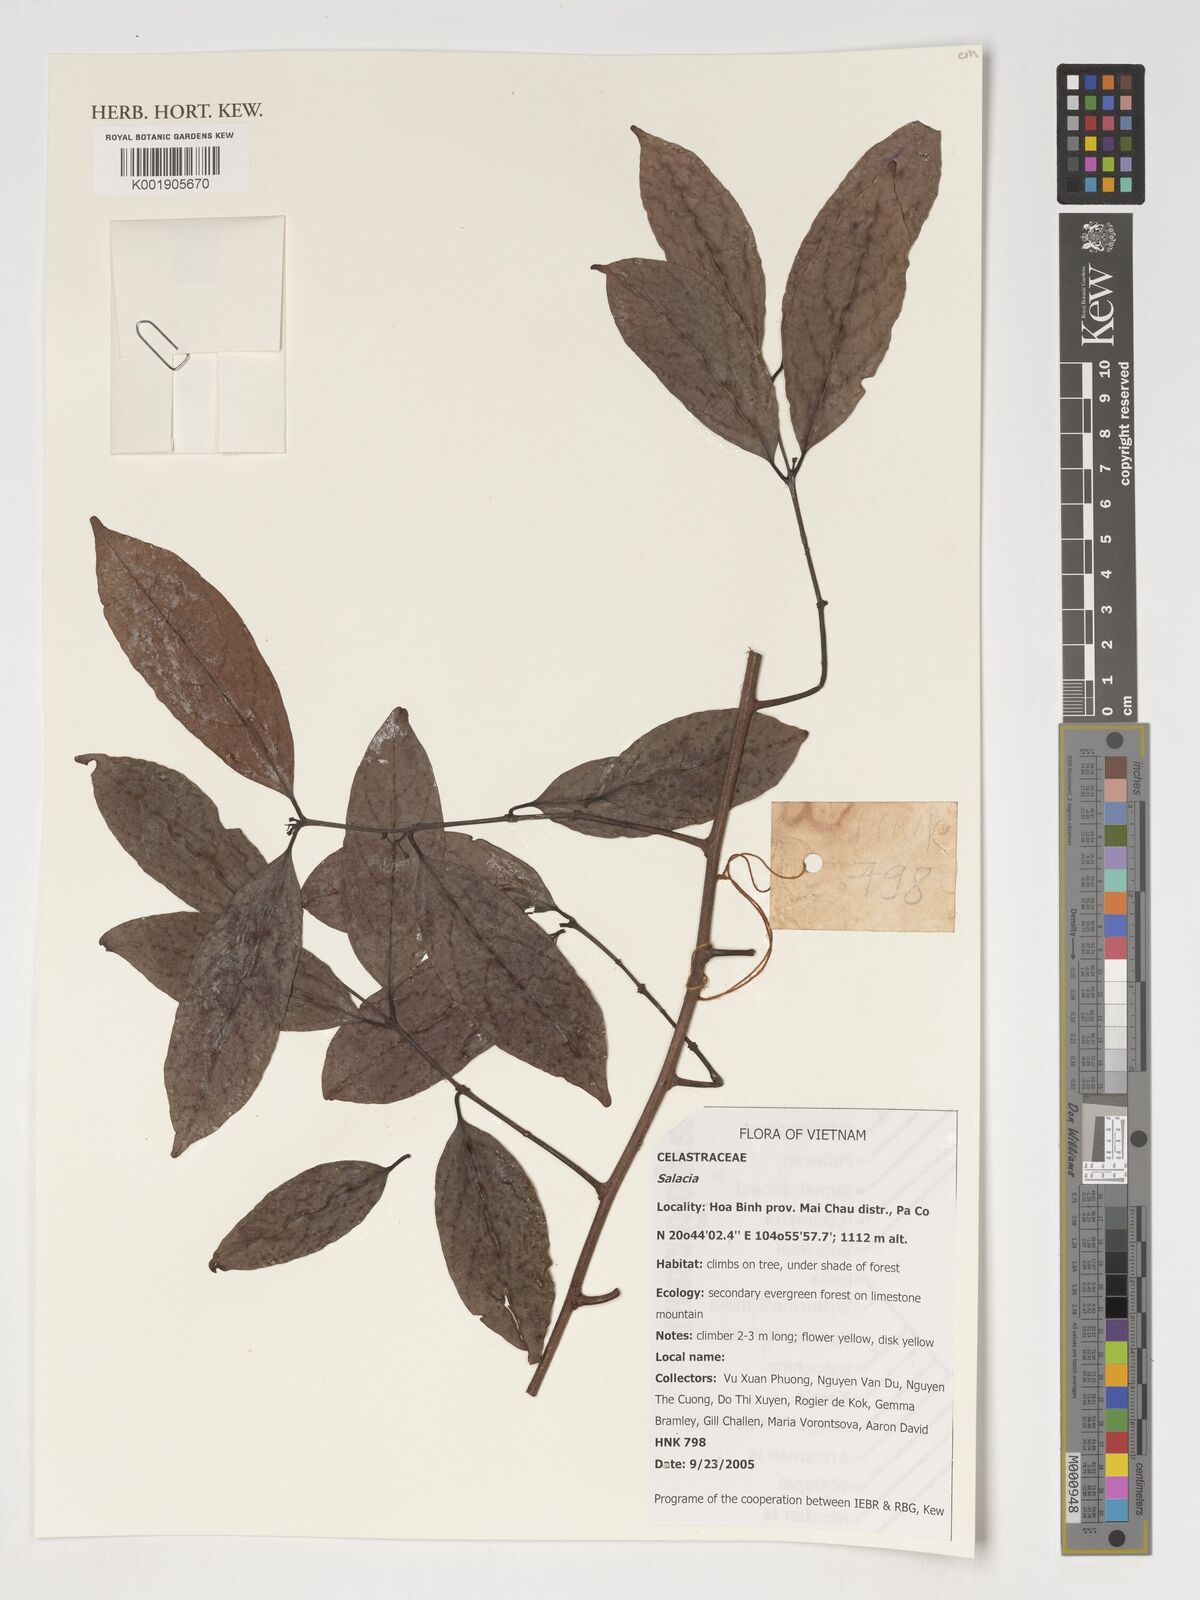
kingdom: Plantae
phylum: Tracheophyta
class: Magnoliopsida
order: Celastrales
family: Celastraceae
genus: Salacia
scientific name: Salacia
